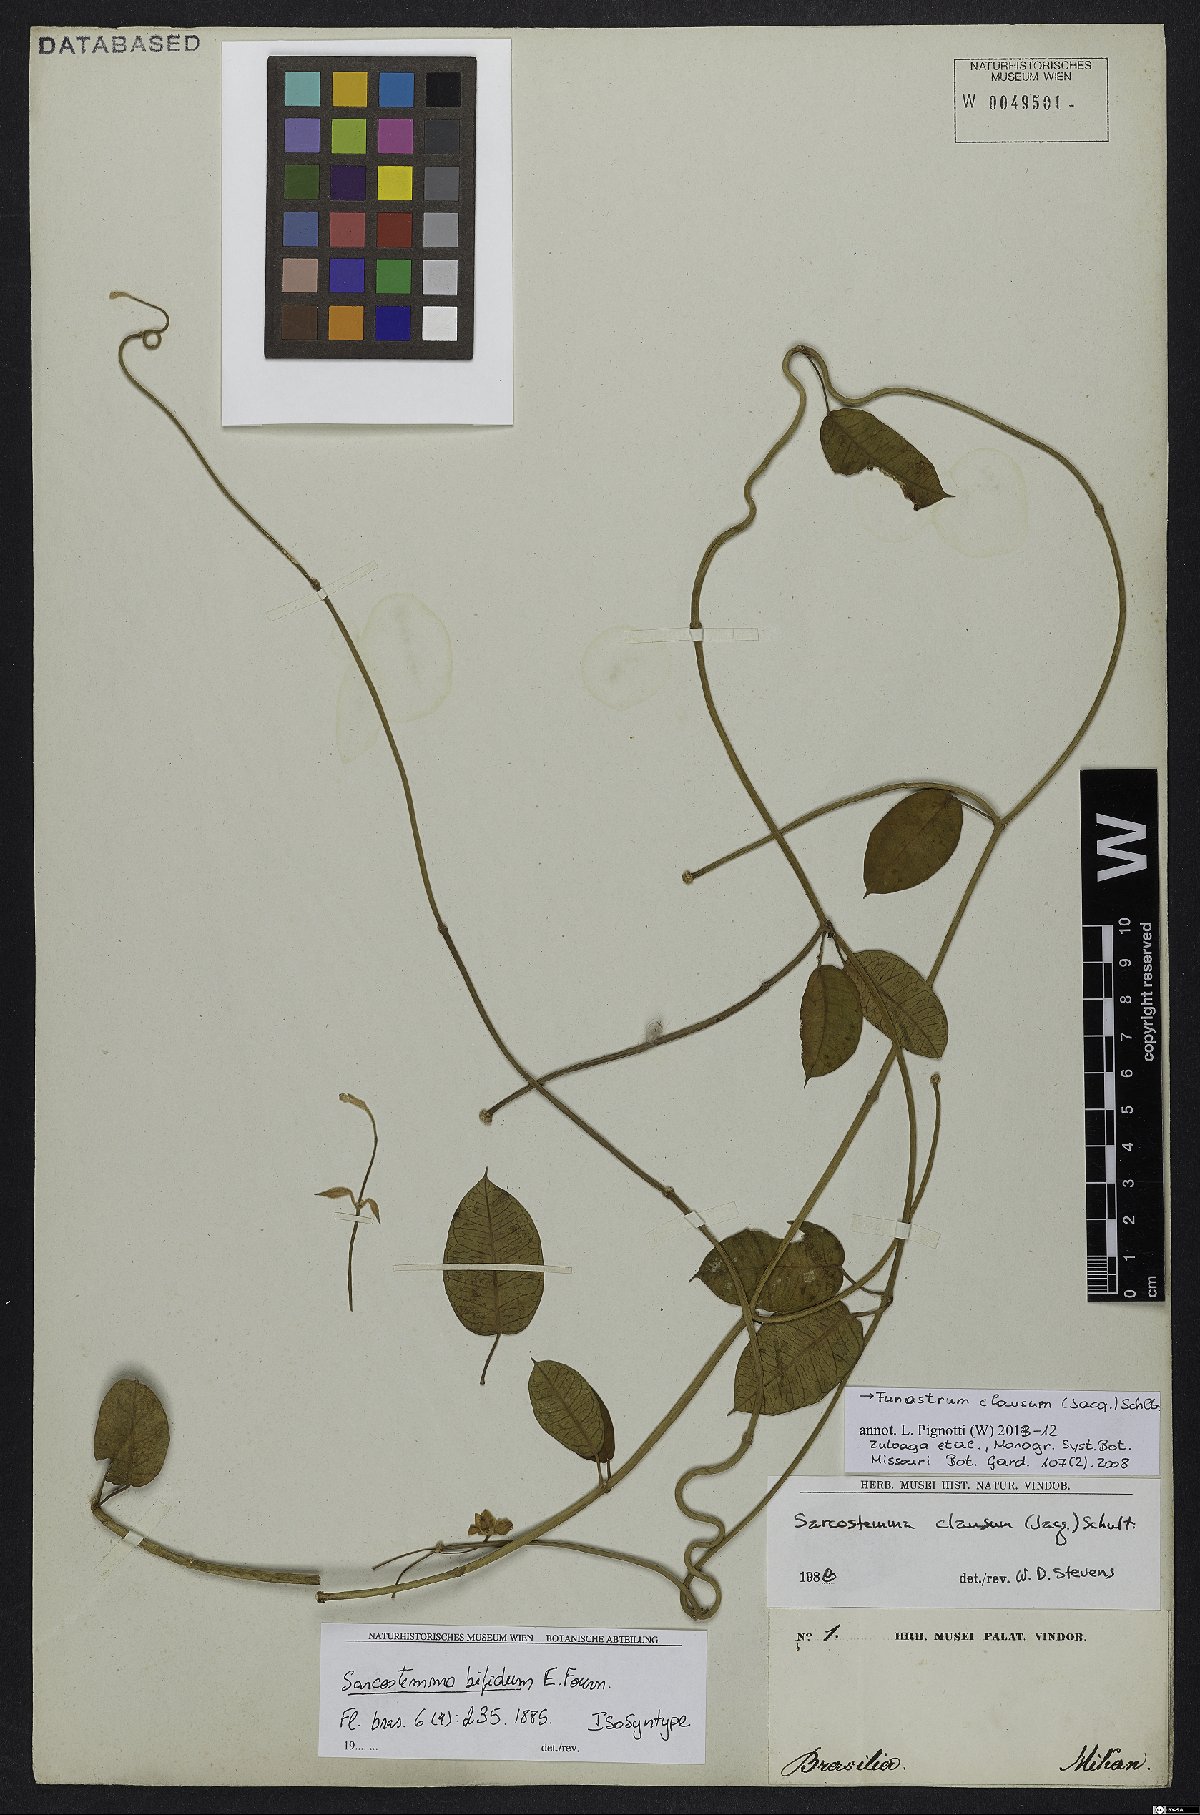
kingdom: Plantae
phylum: Tracheophyta
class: Magnoliopsida
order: Gentianales
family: Apocynaceae
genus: Funastrum
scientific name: Funastrum clausum
